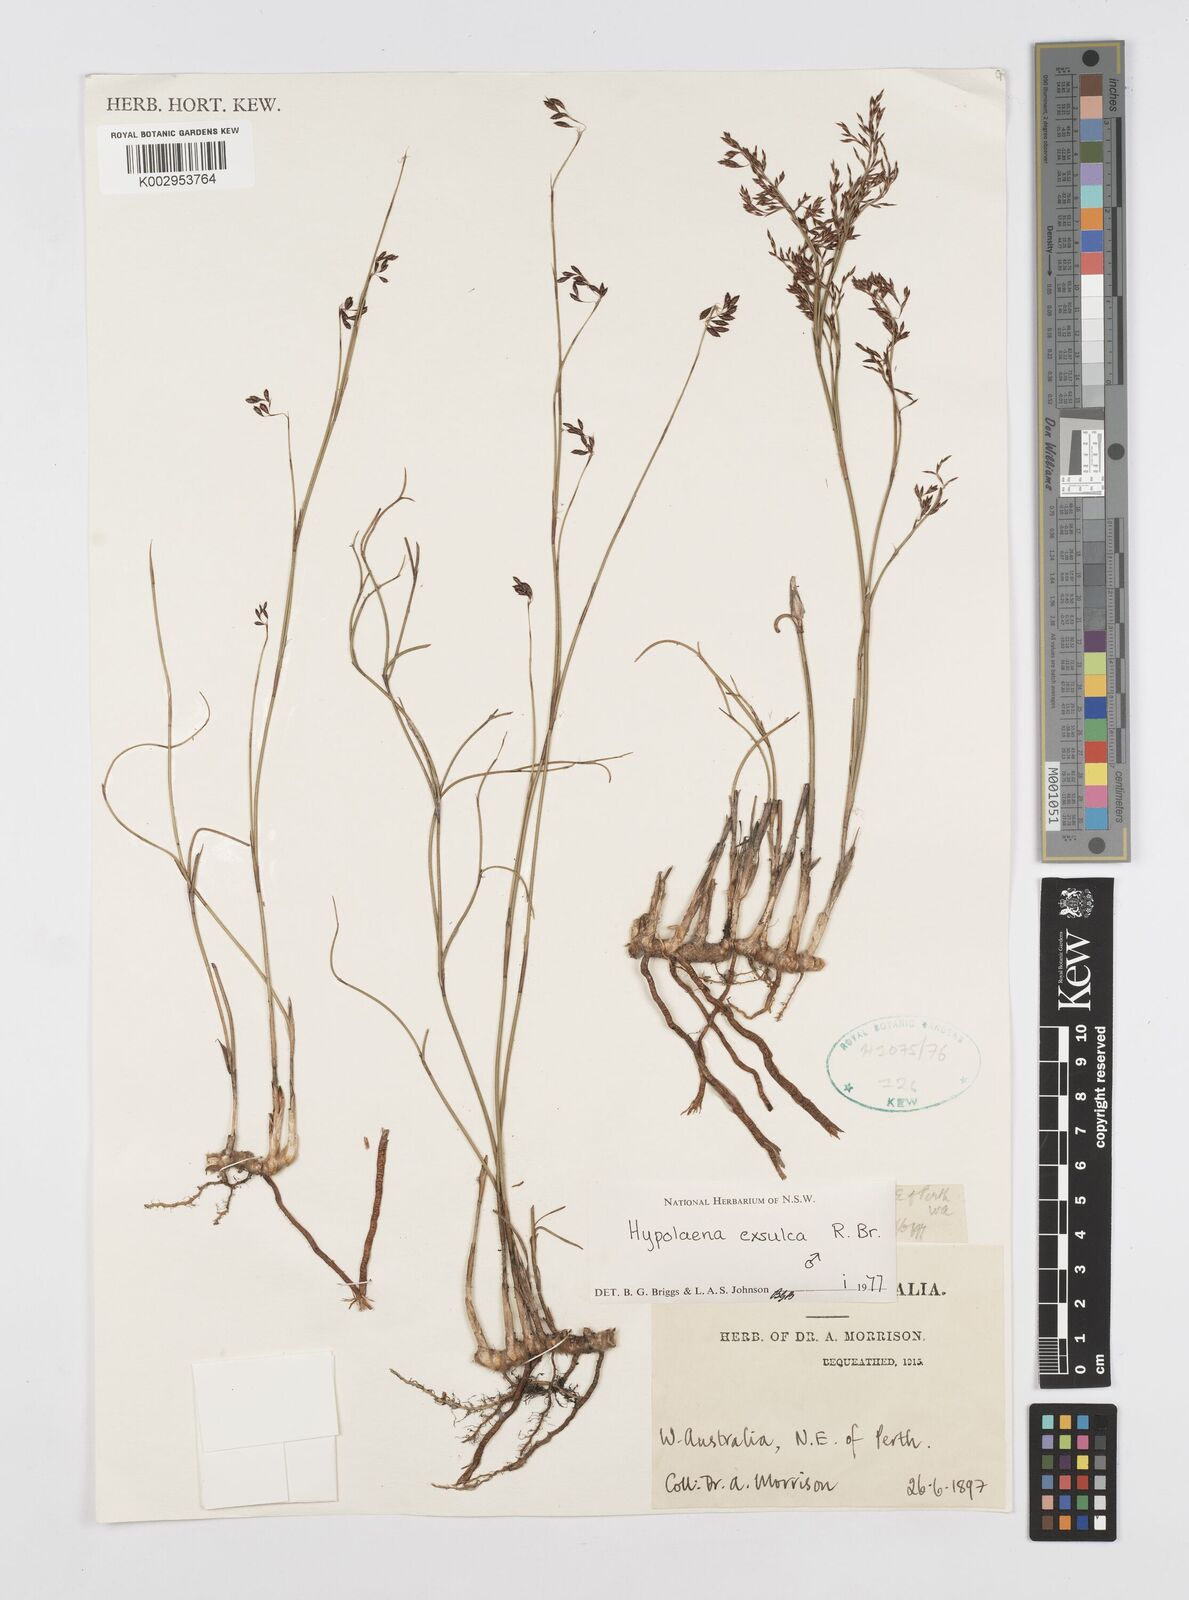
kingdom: Plantae
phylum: Tracheophyta
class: Liliopsida
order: Poales
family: Restionaceae
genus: Hypolaena
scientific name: Hypolaena exsulca
